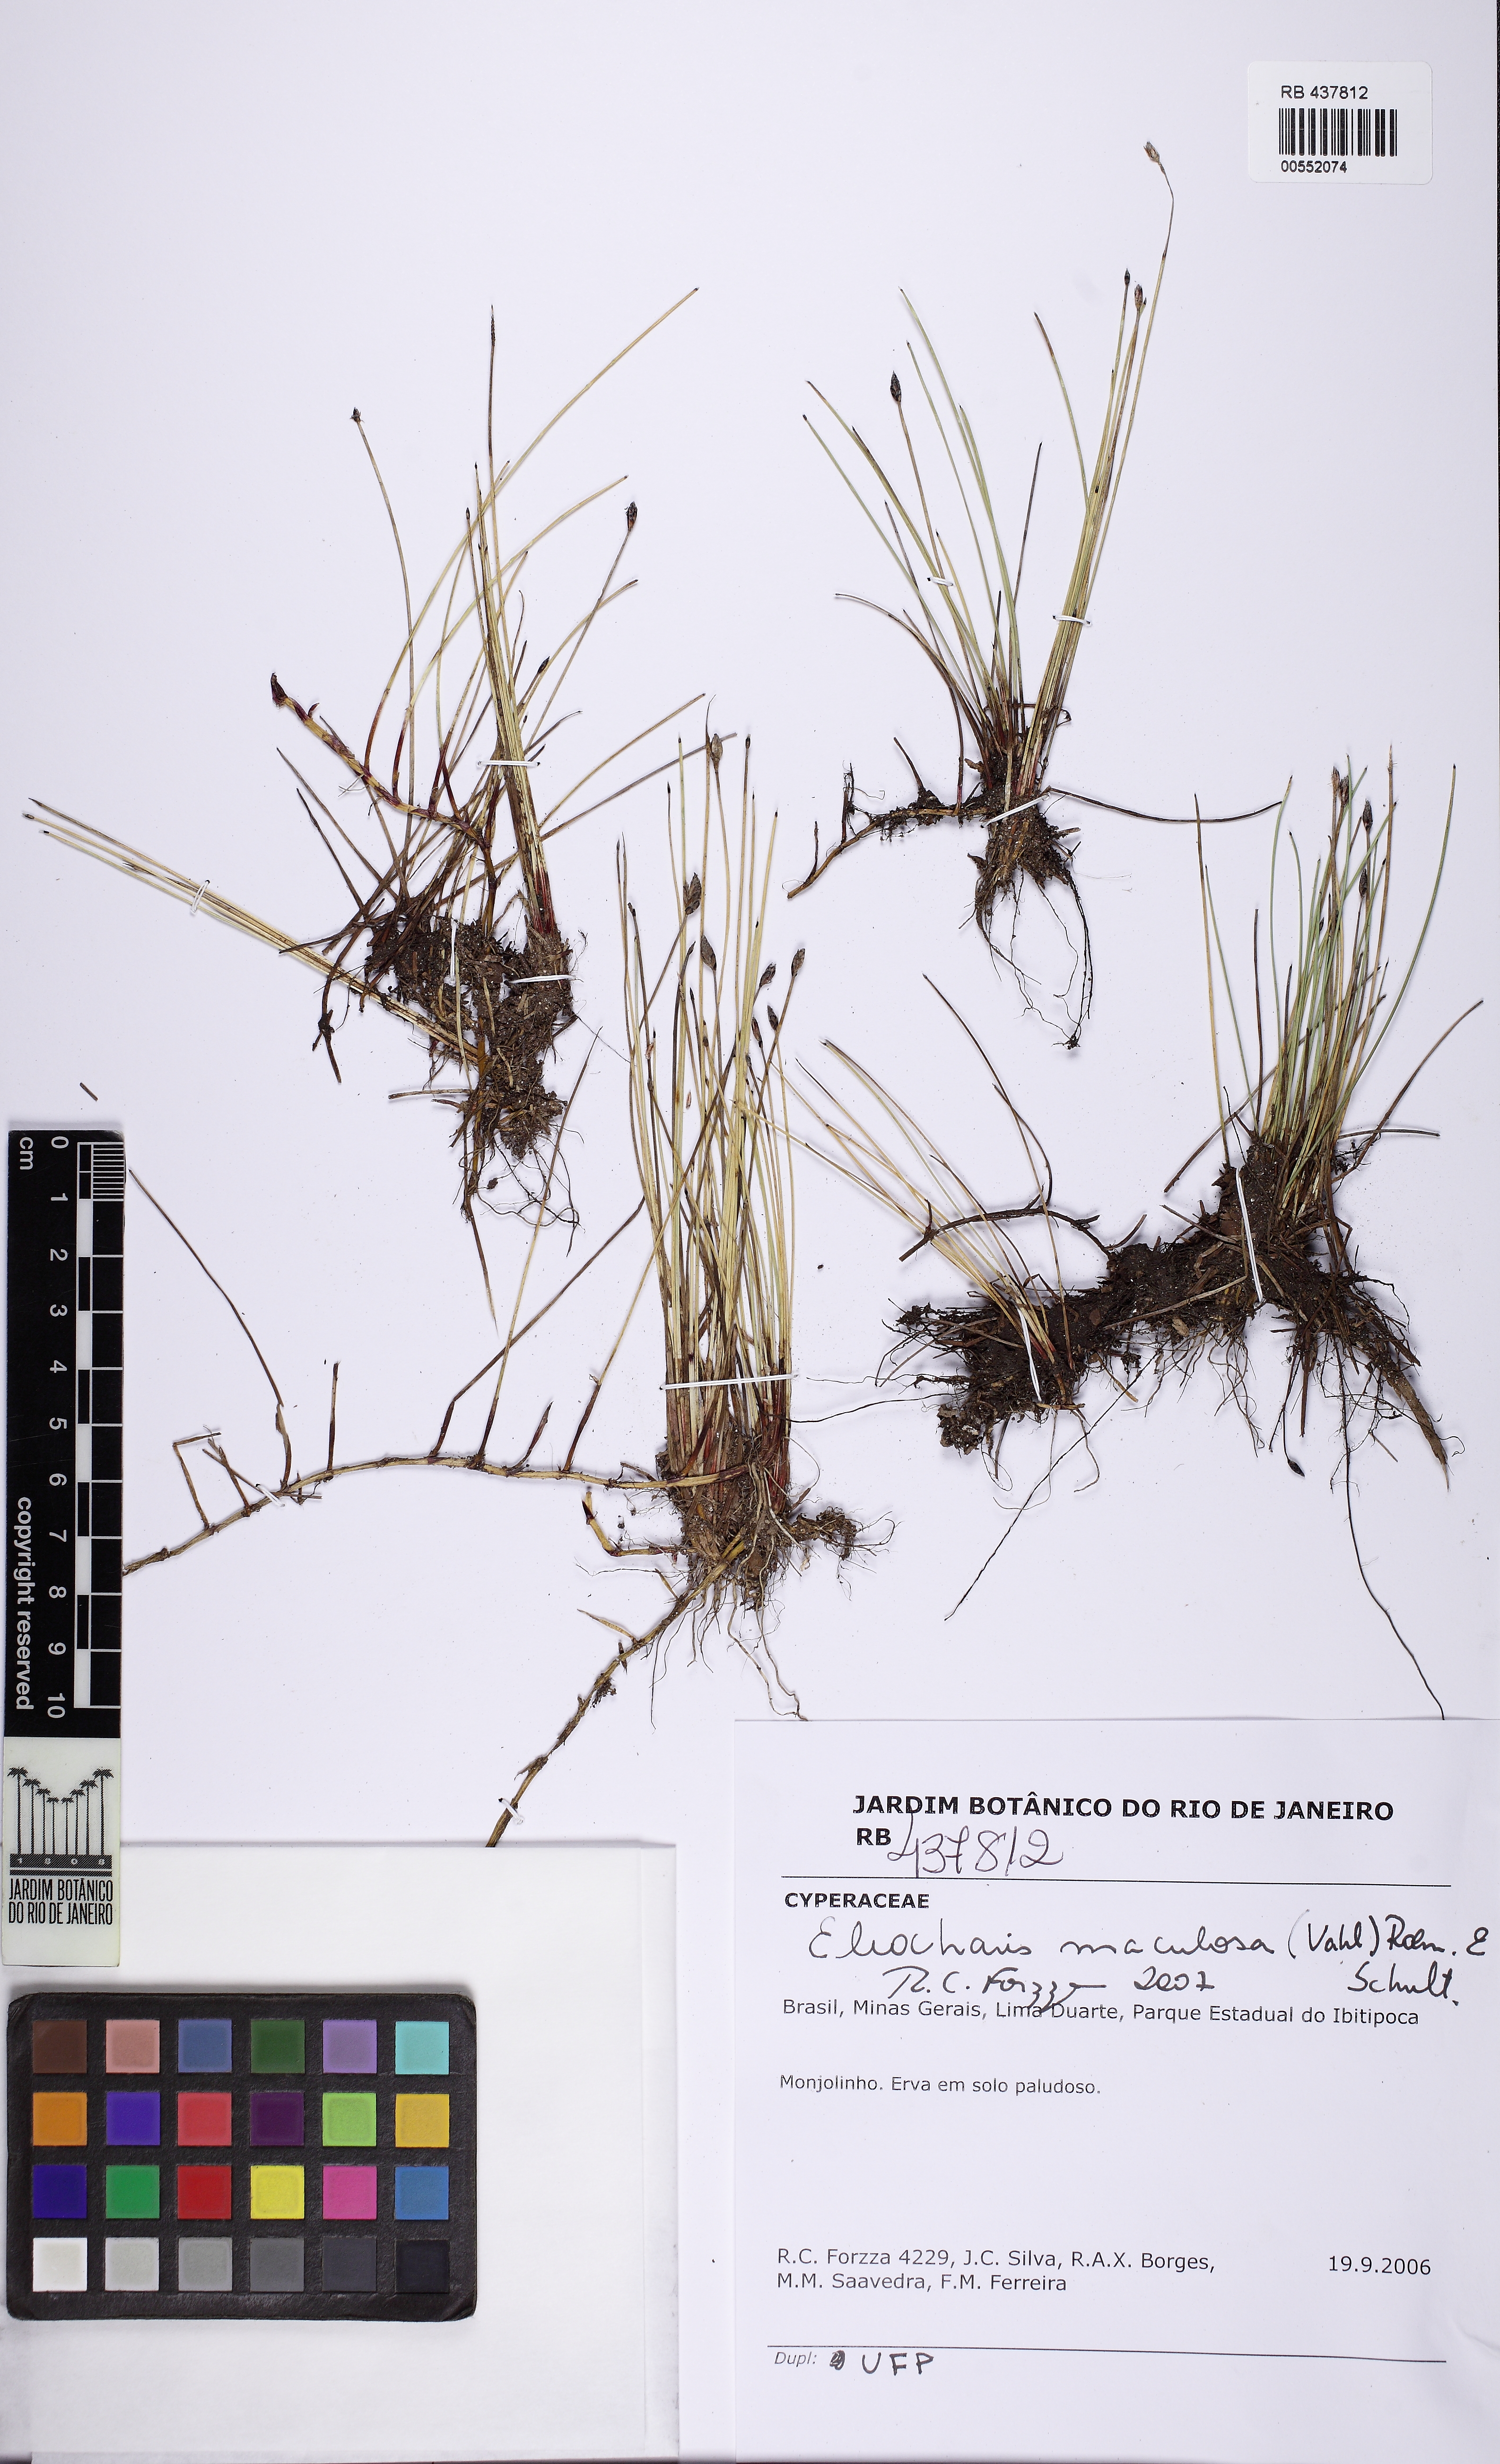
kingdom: Plantae
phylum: Tracheophyta
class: Liliopsida
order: Poales
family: Cyperaceae
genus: Eleocharis
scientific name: Eleocharis maculosa
